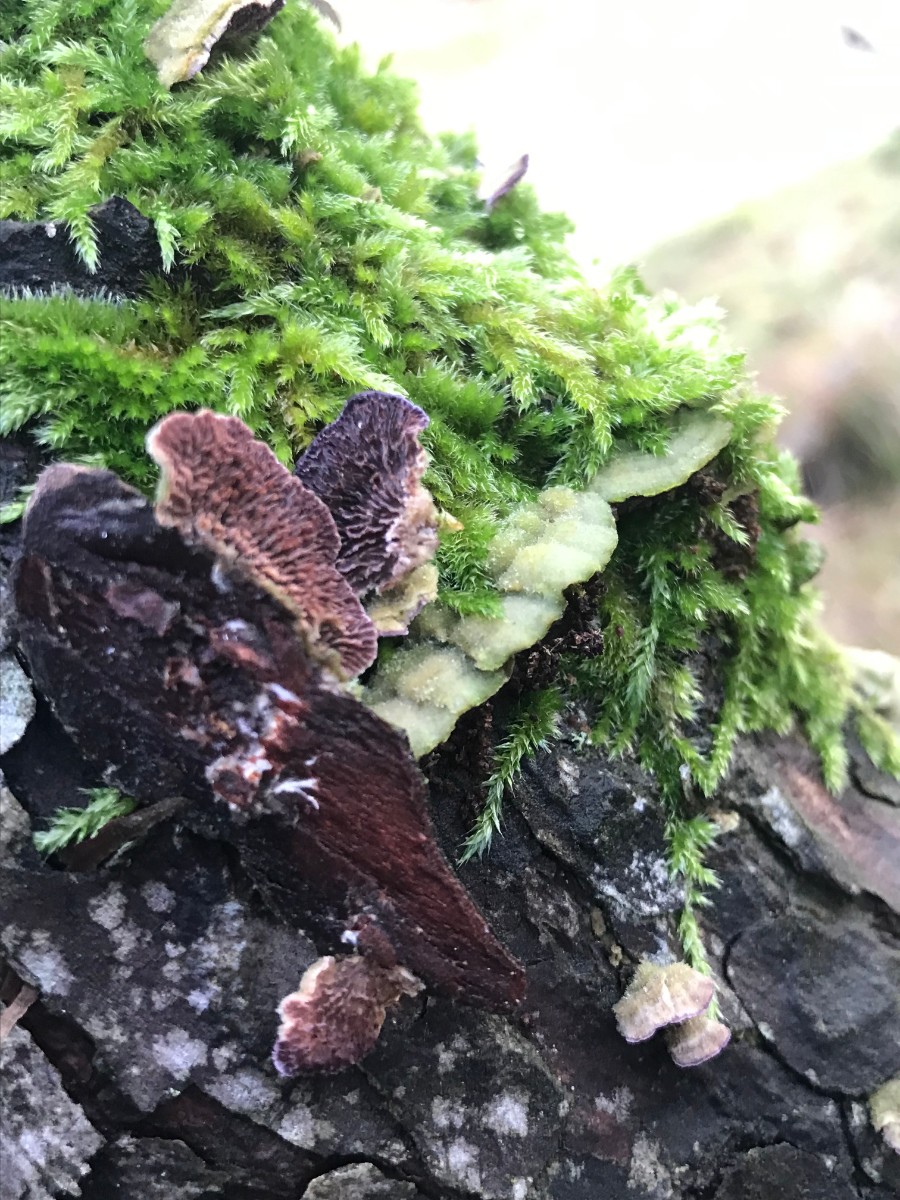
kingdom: Fungi
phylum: Basidiomycota
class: Agaricomycetes
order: Hymenochaetales
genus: Trichaptum
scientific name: Trichaptum fuscoviolaceum
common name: tandet violporesvamp
